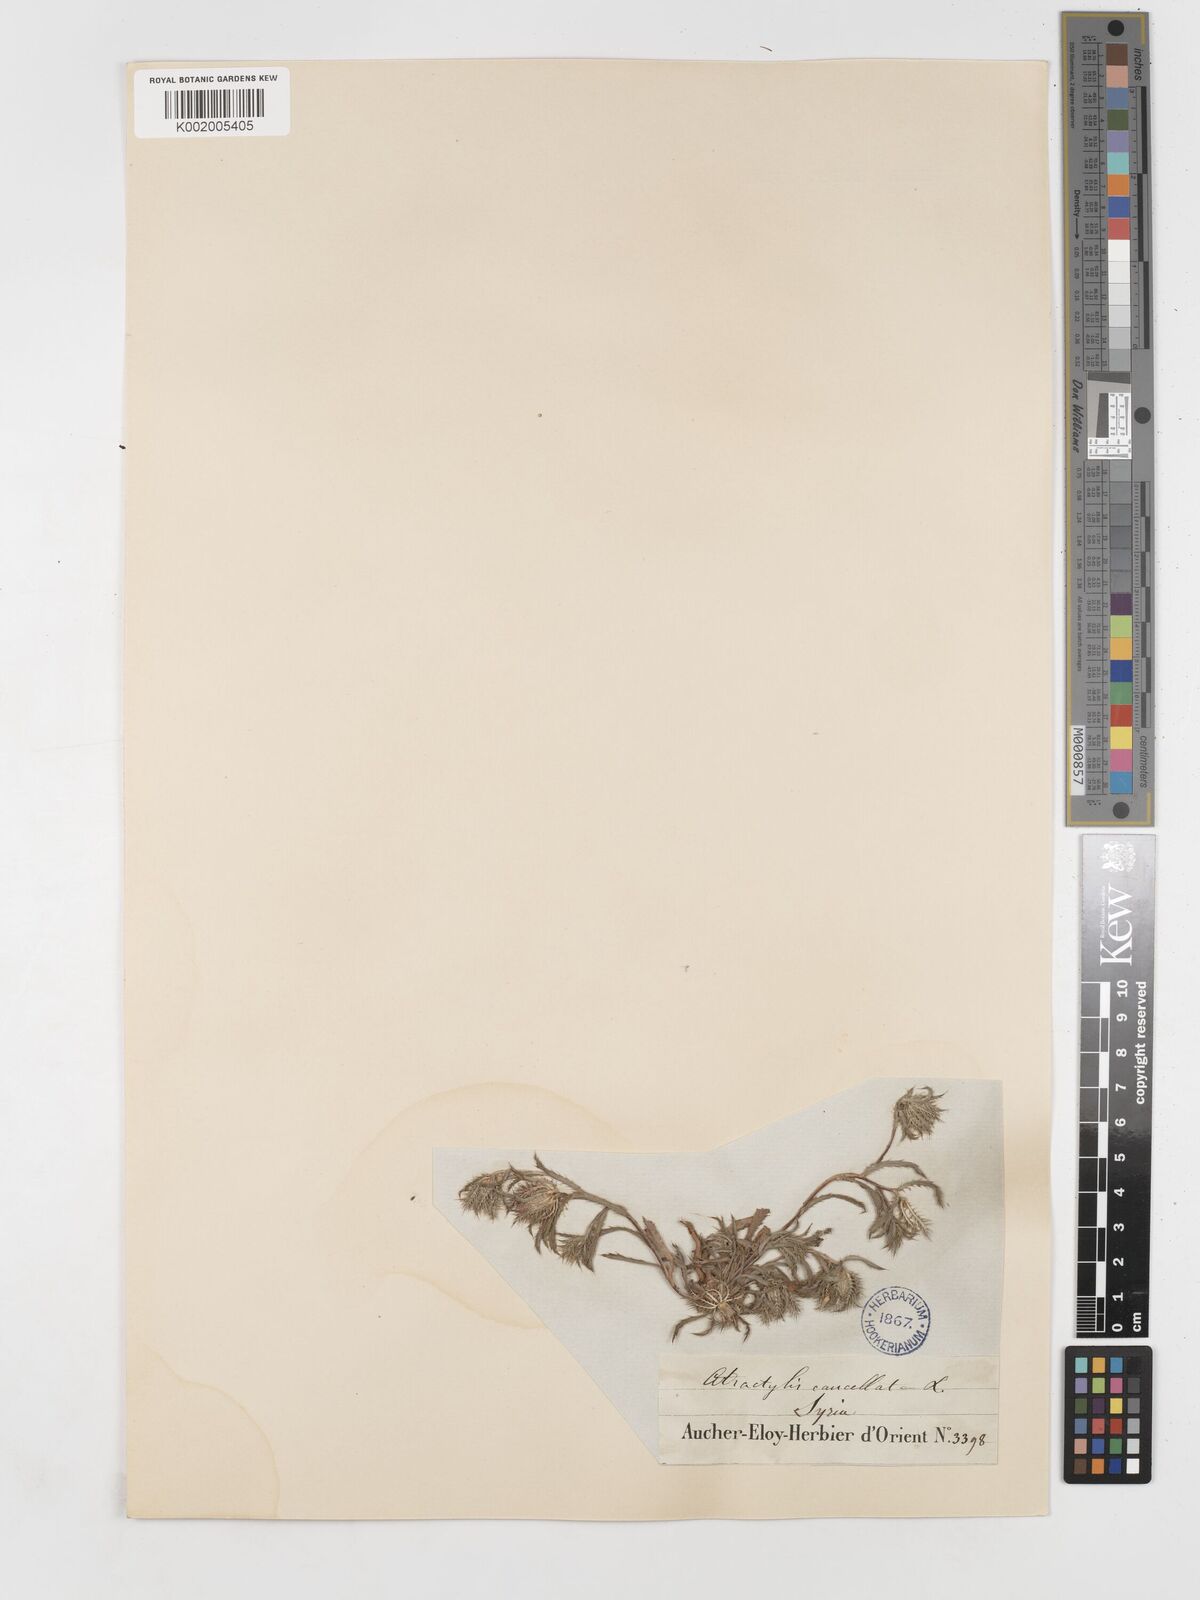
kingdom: Plantae
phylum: Tracheophyta
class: Magnoliopsida
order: Asterales
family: Asteraceae
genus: Atractylis
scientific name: Atractylis cancellata
